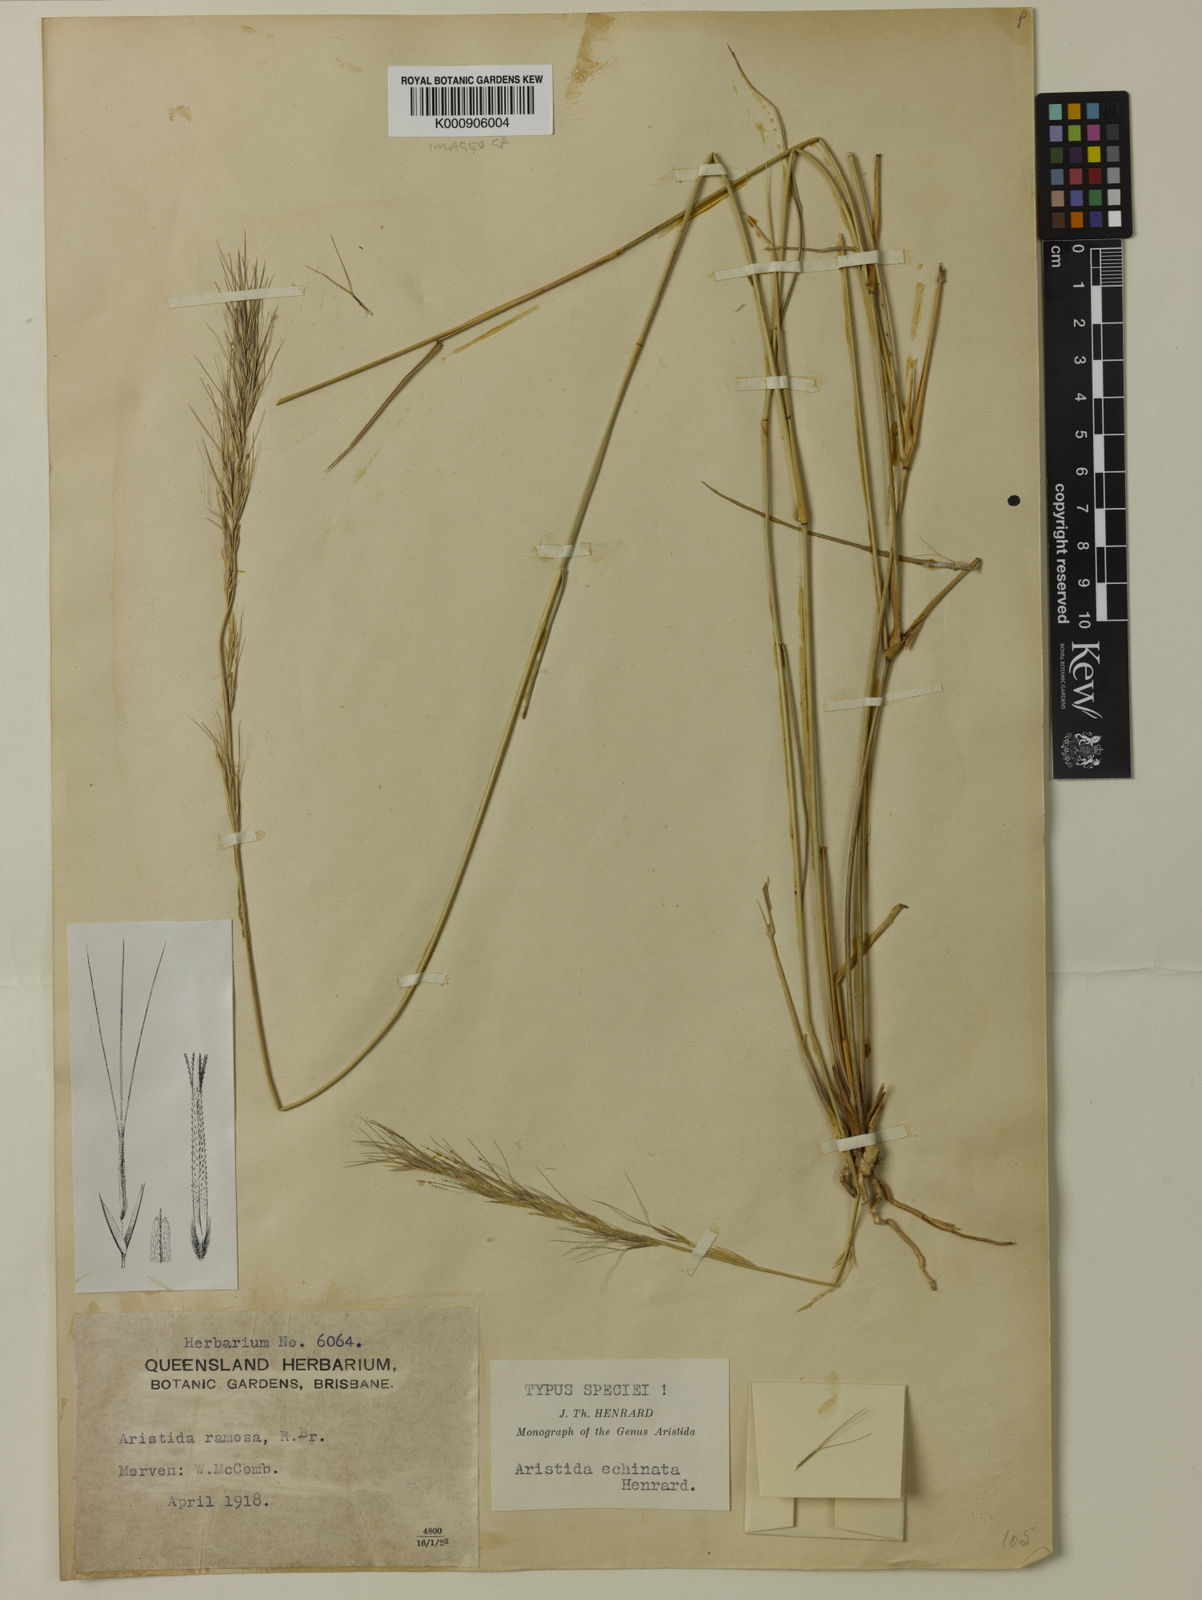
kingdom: Plantae
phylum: Tracheophyta
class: Liliopsida
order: Poales
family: Poaceae
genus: Aristida
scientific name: Aristida echinata
